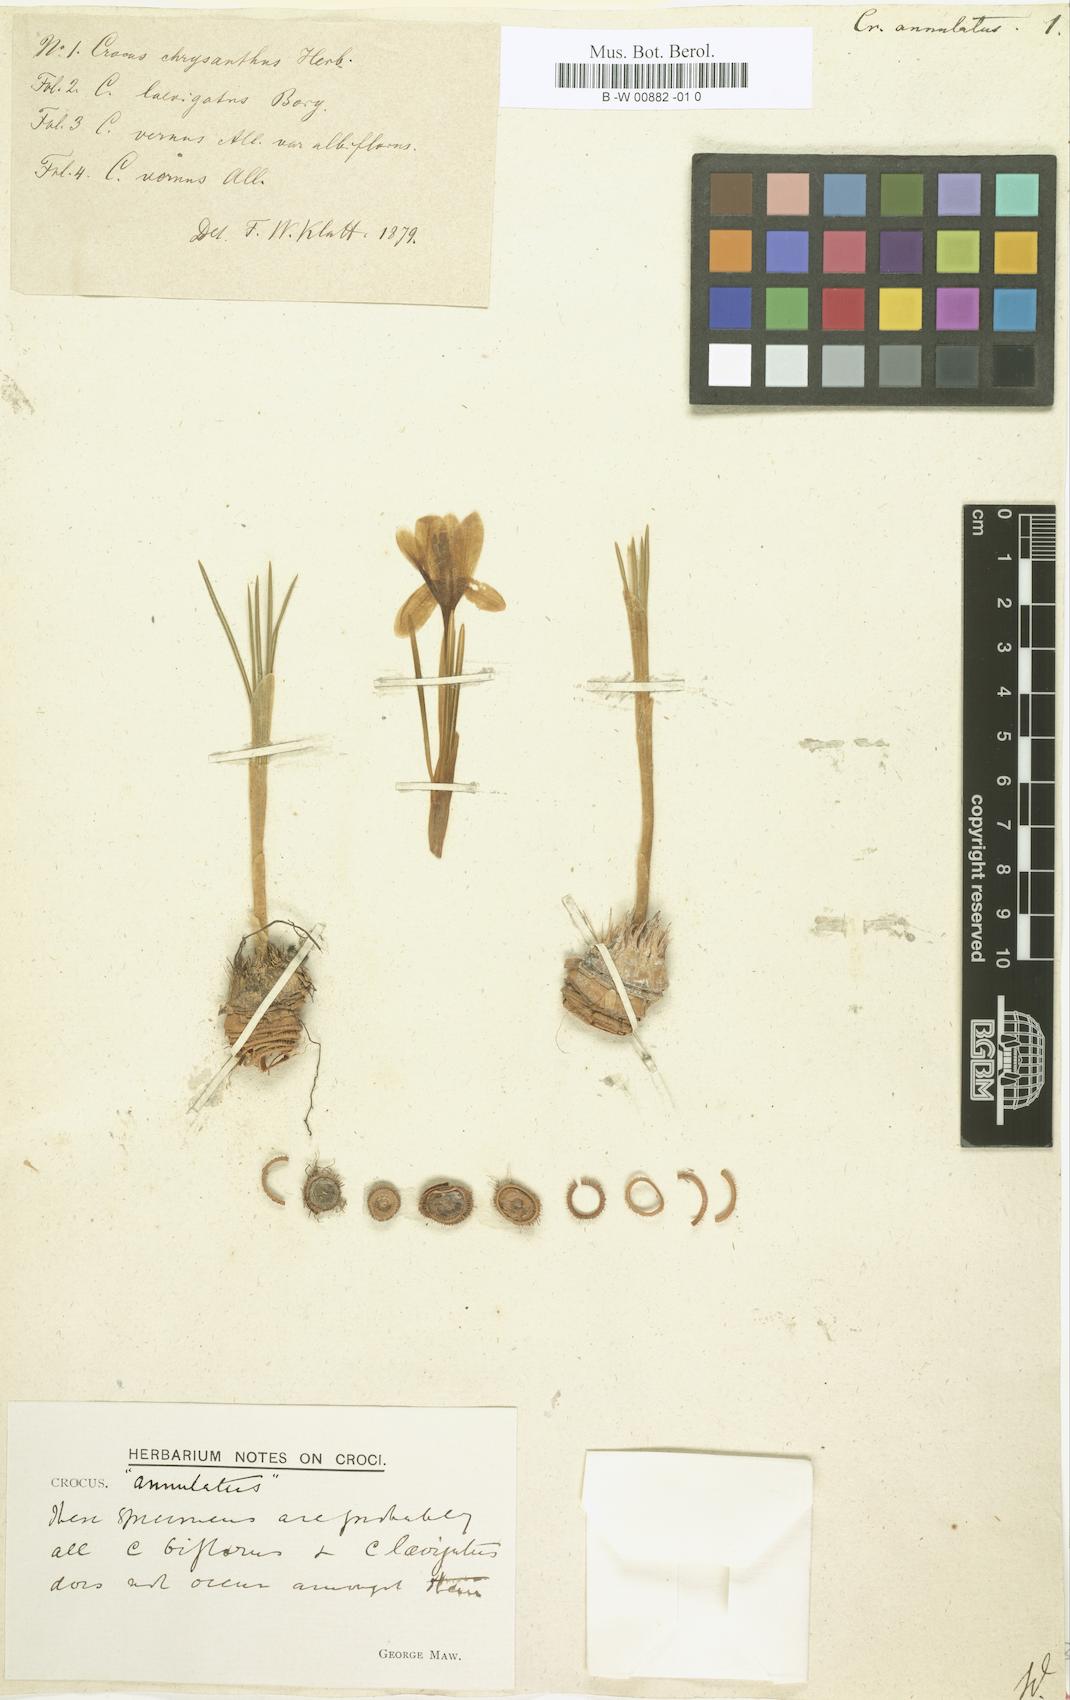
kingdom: Plantae
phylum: Tracheophyta
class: Liliopsida
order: Asparagales
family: Iridaceae
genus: Crocus
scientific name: Crocus annulatus
